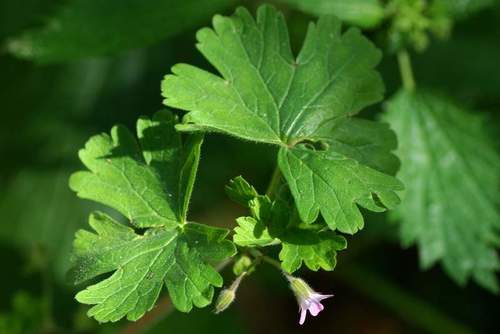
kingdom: Plantae
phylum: Tracheophyta
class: Magnoliopsida
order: Geraniales
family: Geraniaceae
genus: Geranium
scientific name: Geranium rotundifolium
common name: Round-leaved crane's-bill
